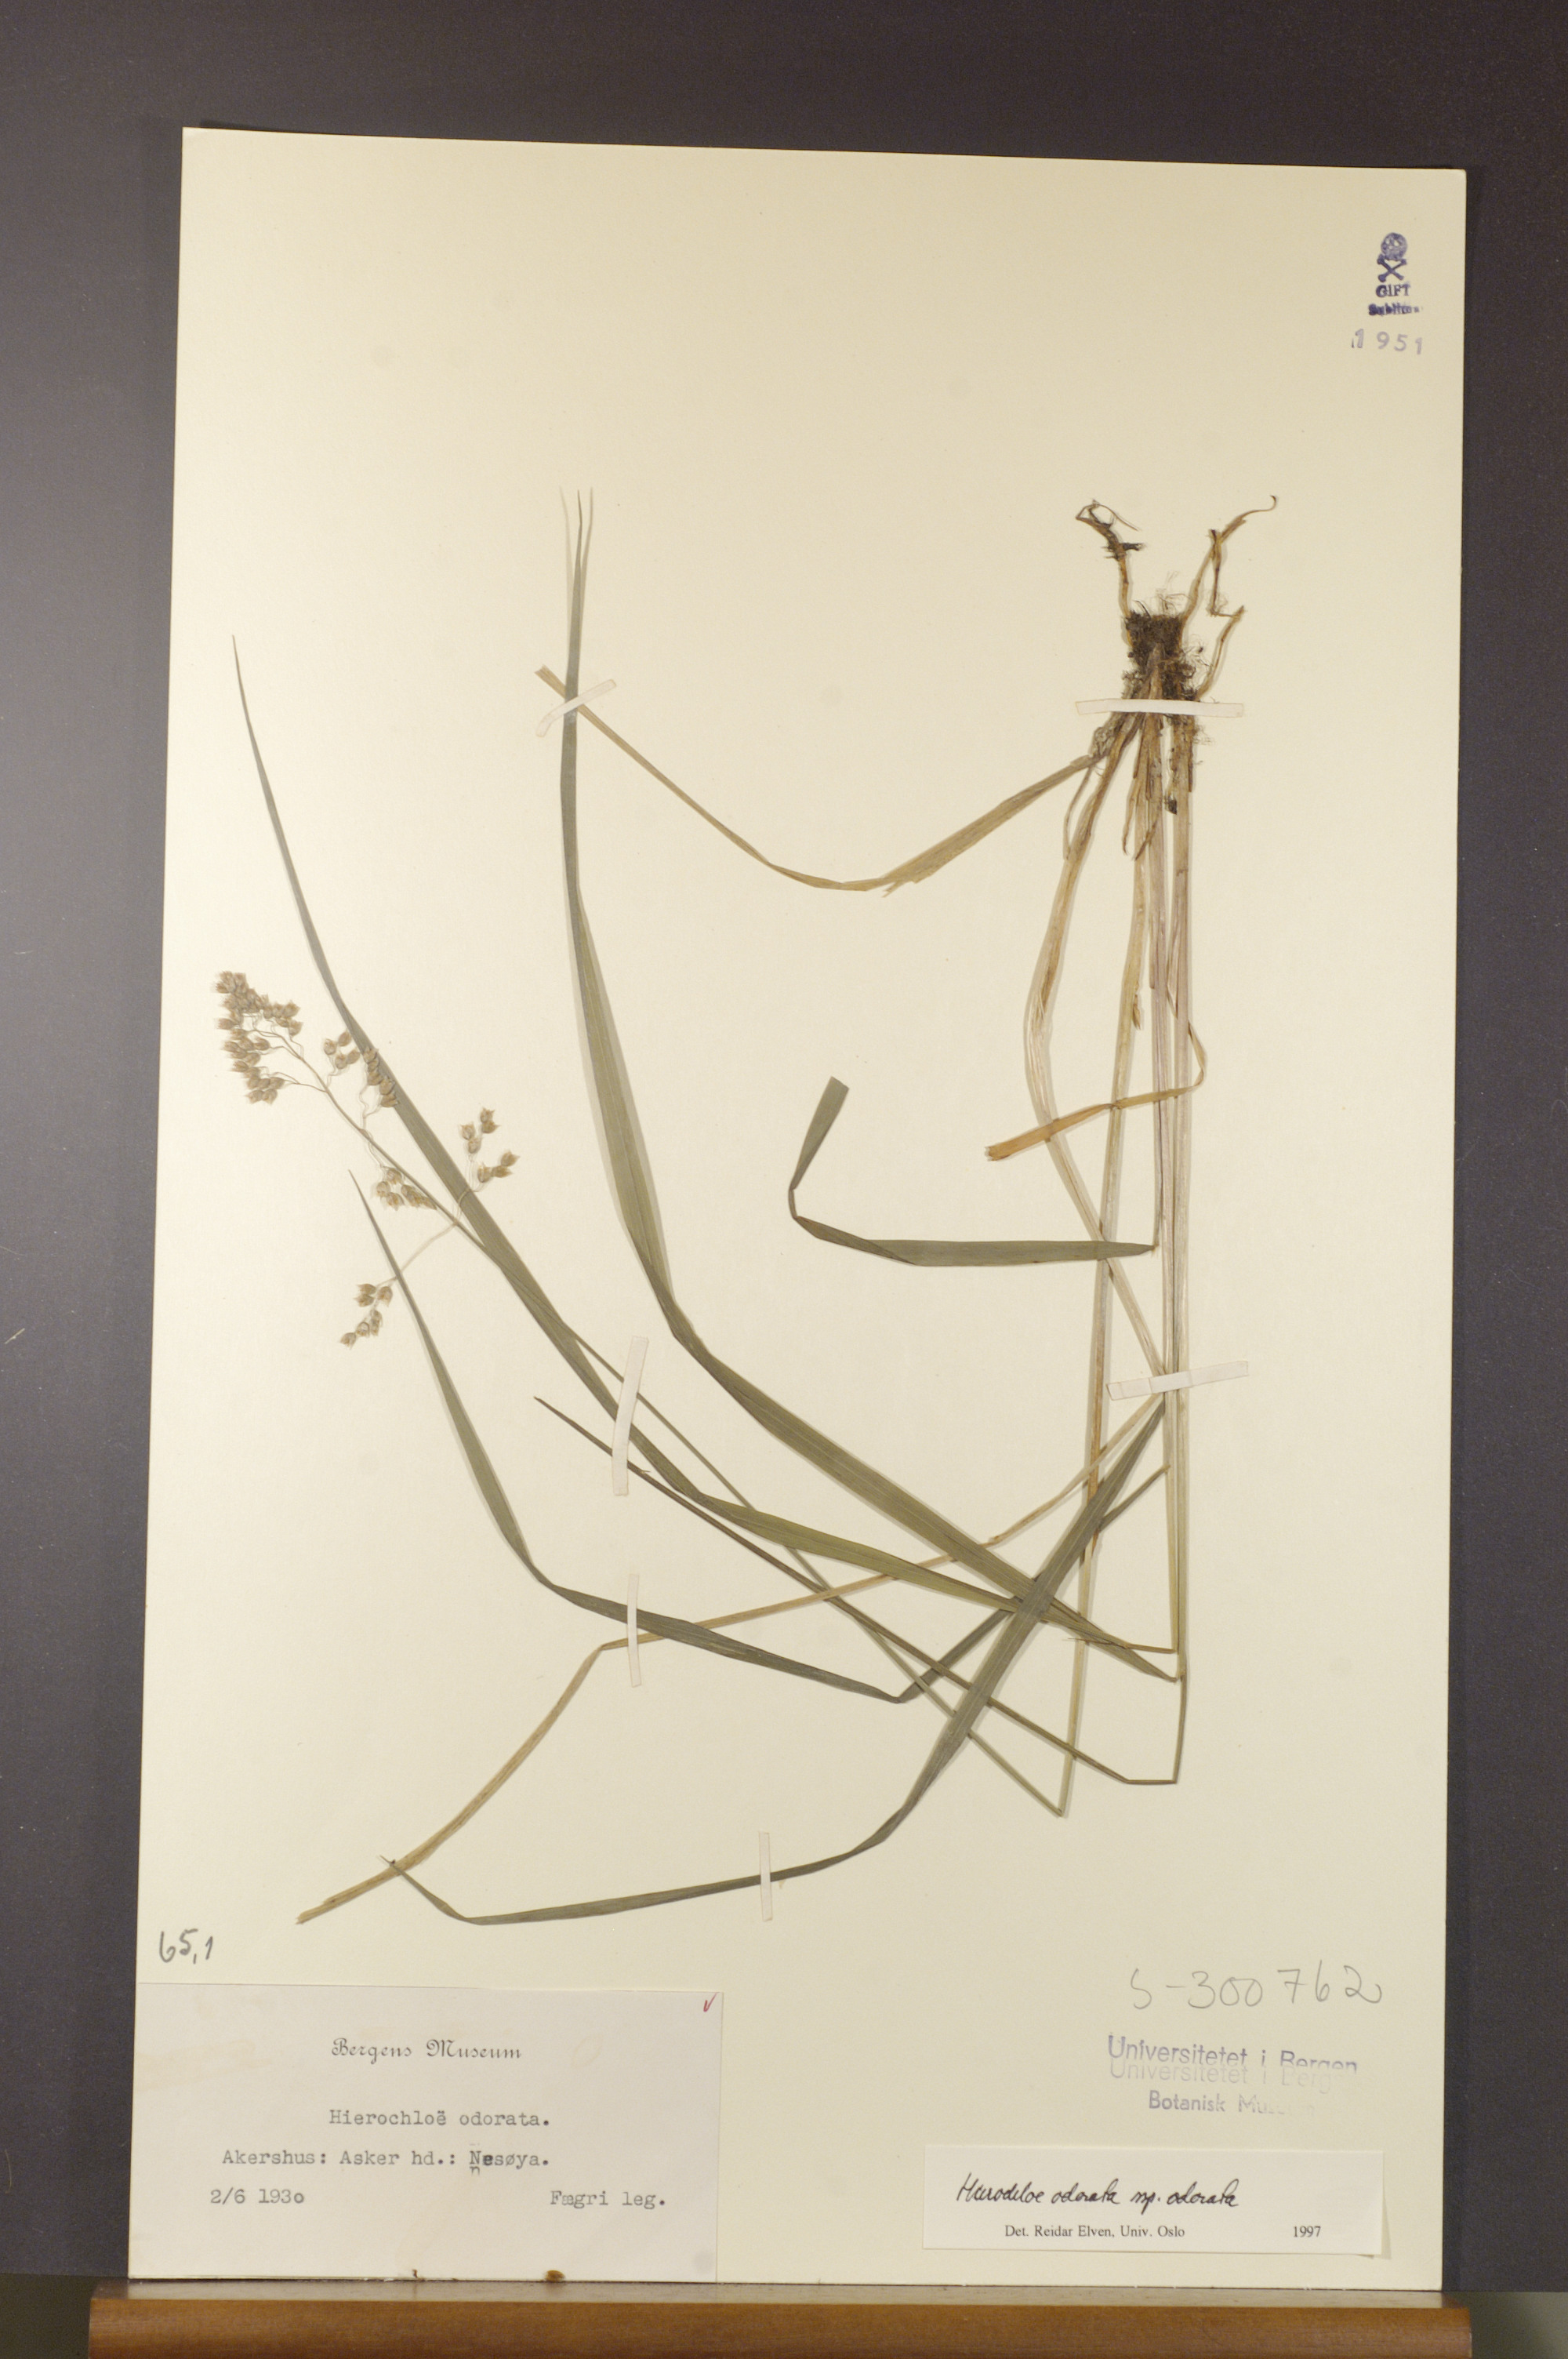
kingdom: Plantae
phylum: Tracheophyta
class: Liliopsida
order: Poales
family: Poaceae
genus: Anthoxanthum
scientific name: Anthoxanthum nitens
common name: Holy grass
